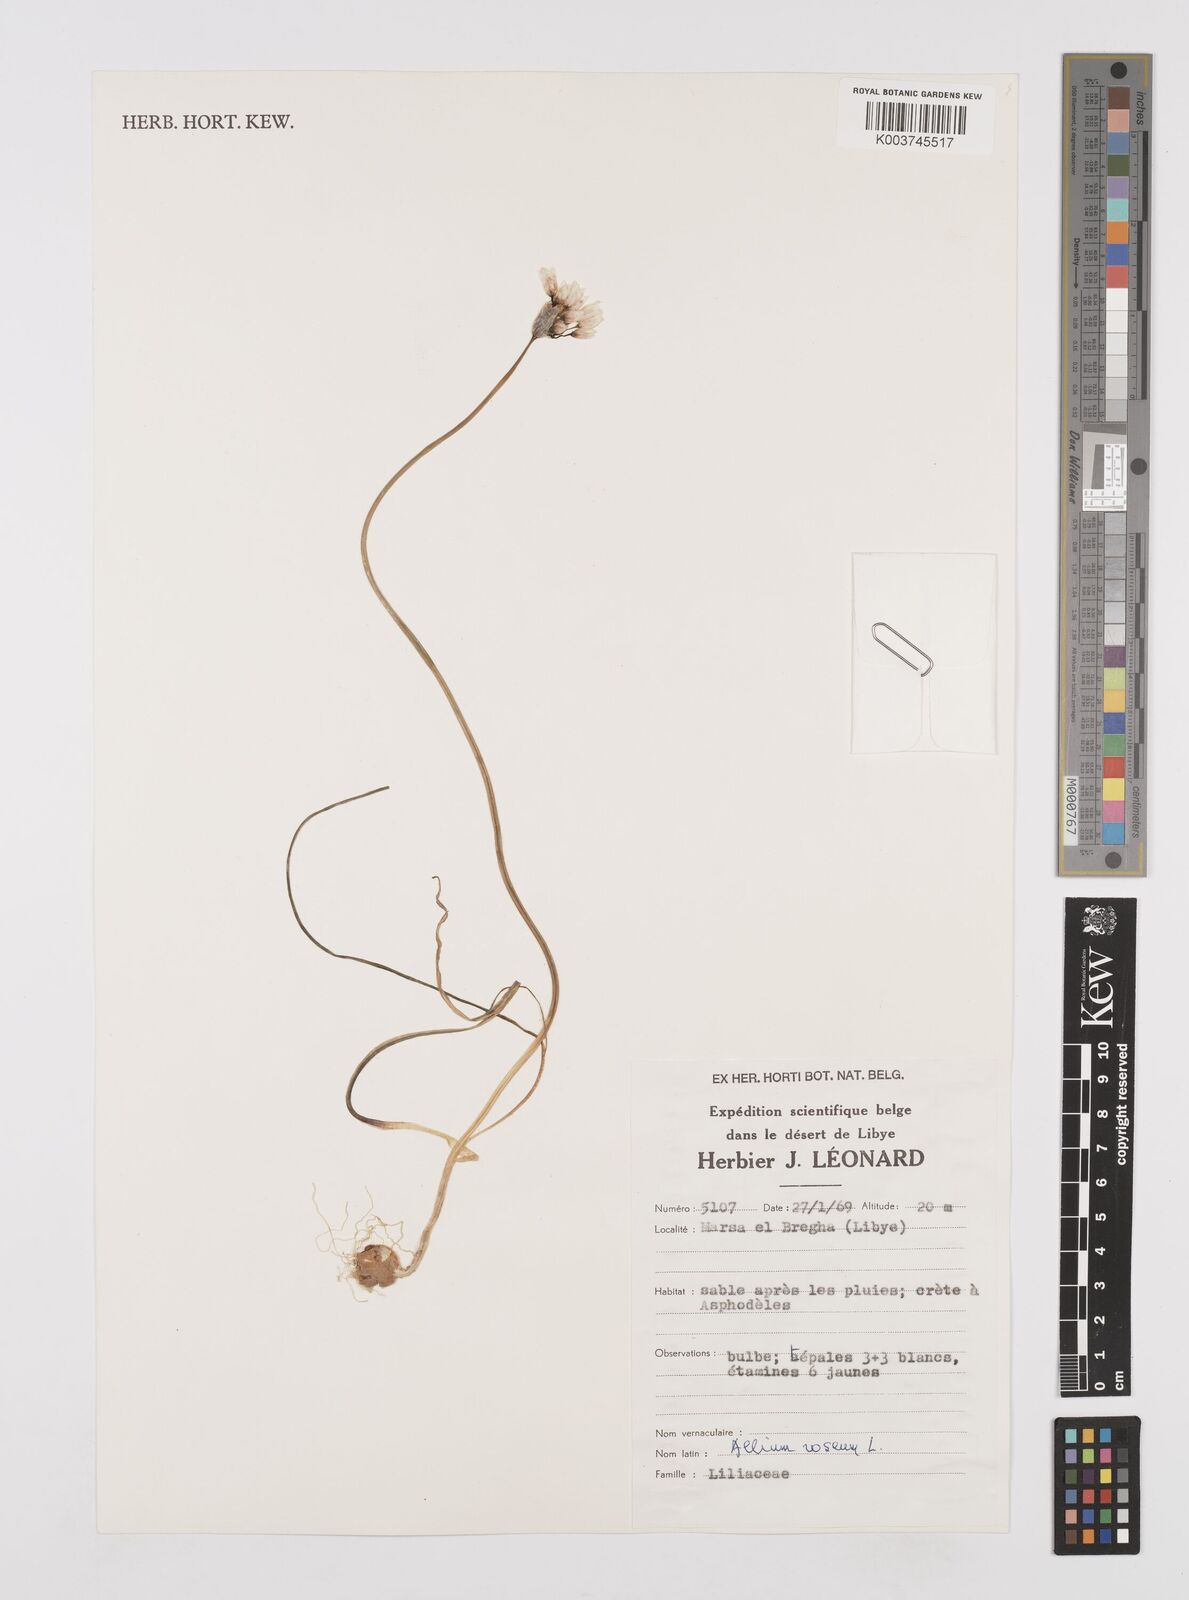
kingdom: Plantae
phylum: Tracheophyta
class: Liliopsida
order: Asparagales
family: Amaryllidaceae
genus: Allium
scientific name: Allium roseum
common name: Rosy garlic
